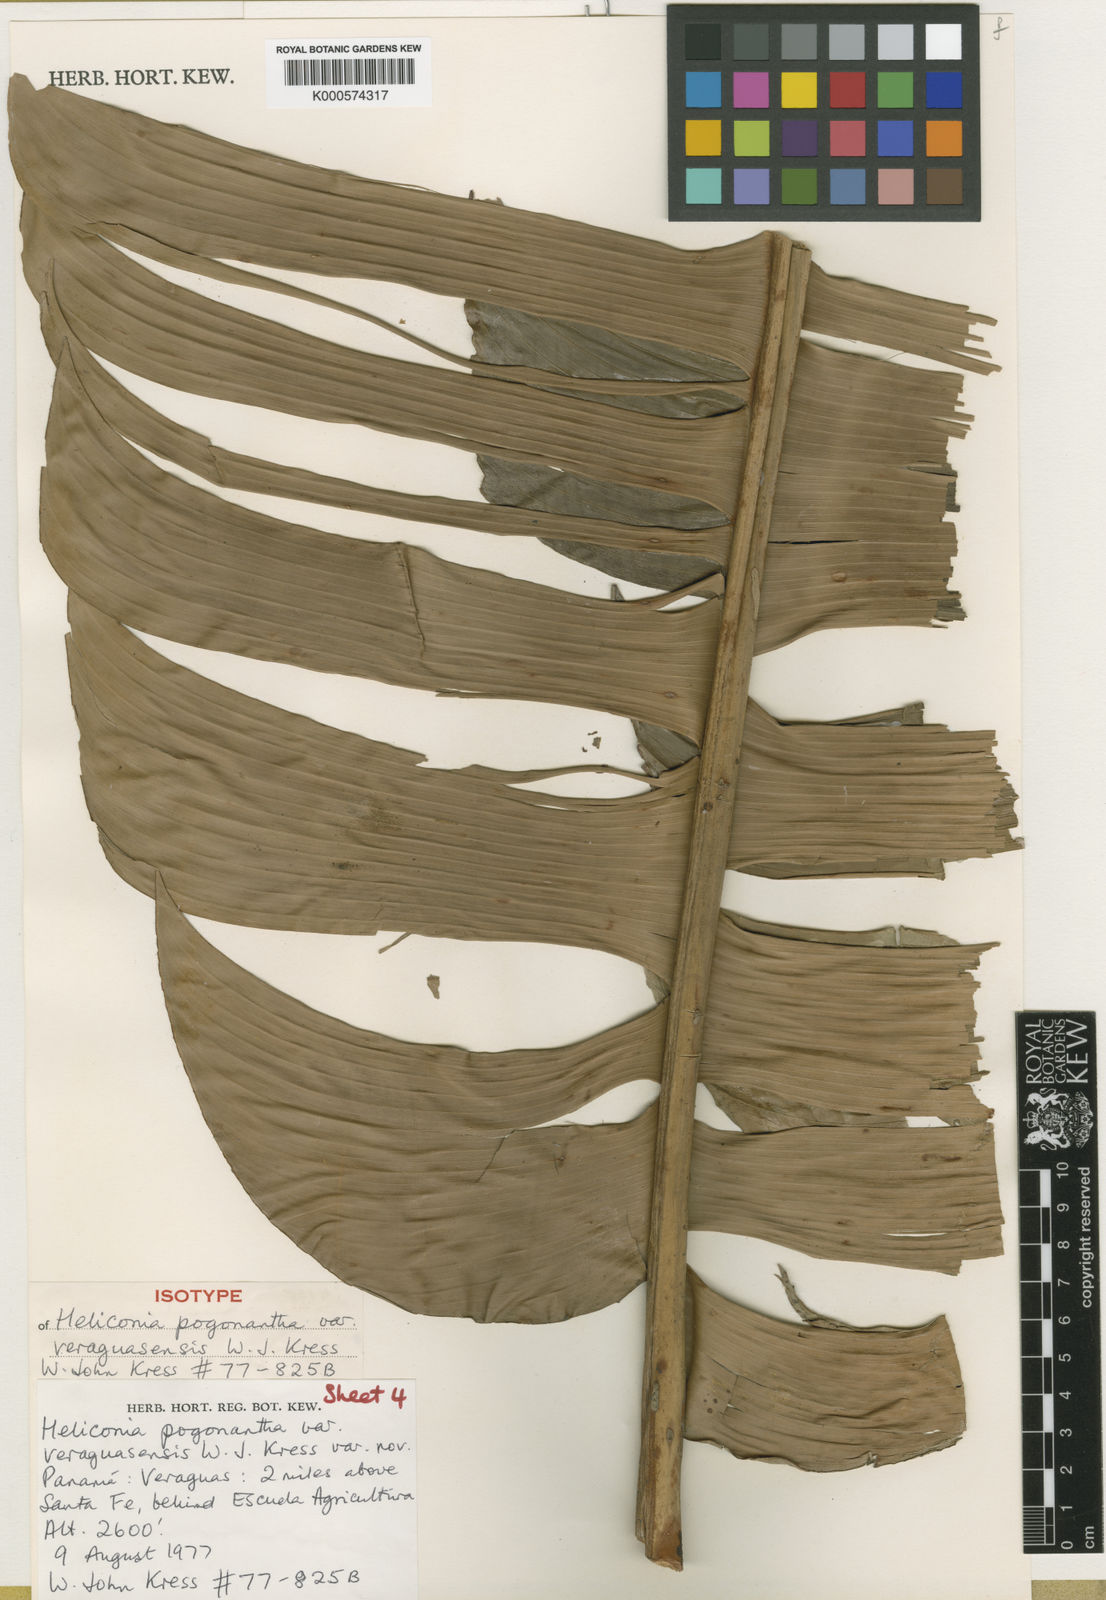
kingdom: Plantae
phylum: Tracheophyta
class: Liliopsida
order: Zingiberales
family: Heliconiaceae
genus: Heliconia
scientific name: Heliconia pogonantha
